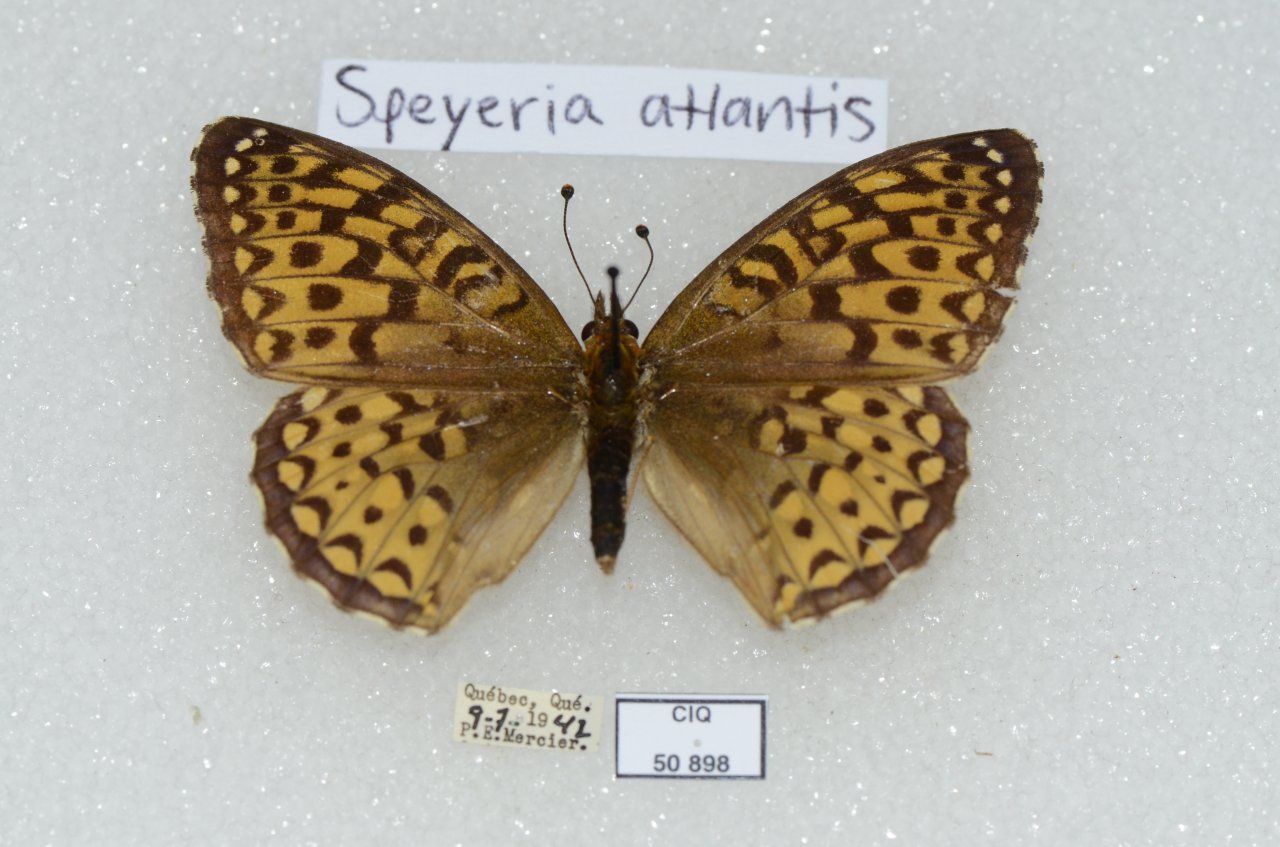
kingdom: Animalia
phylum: Arthropoda
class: Insecta
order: Lepidoptera
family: Nymphalidae
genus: Speyeria
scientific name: Speyeria atlantis
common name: Atlantis Fritillary
